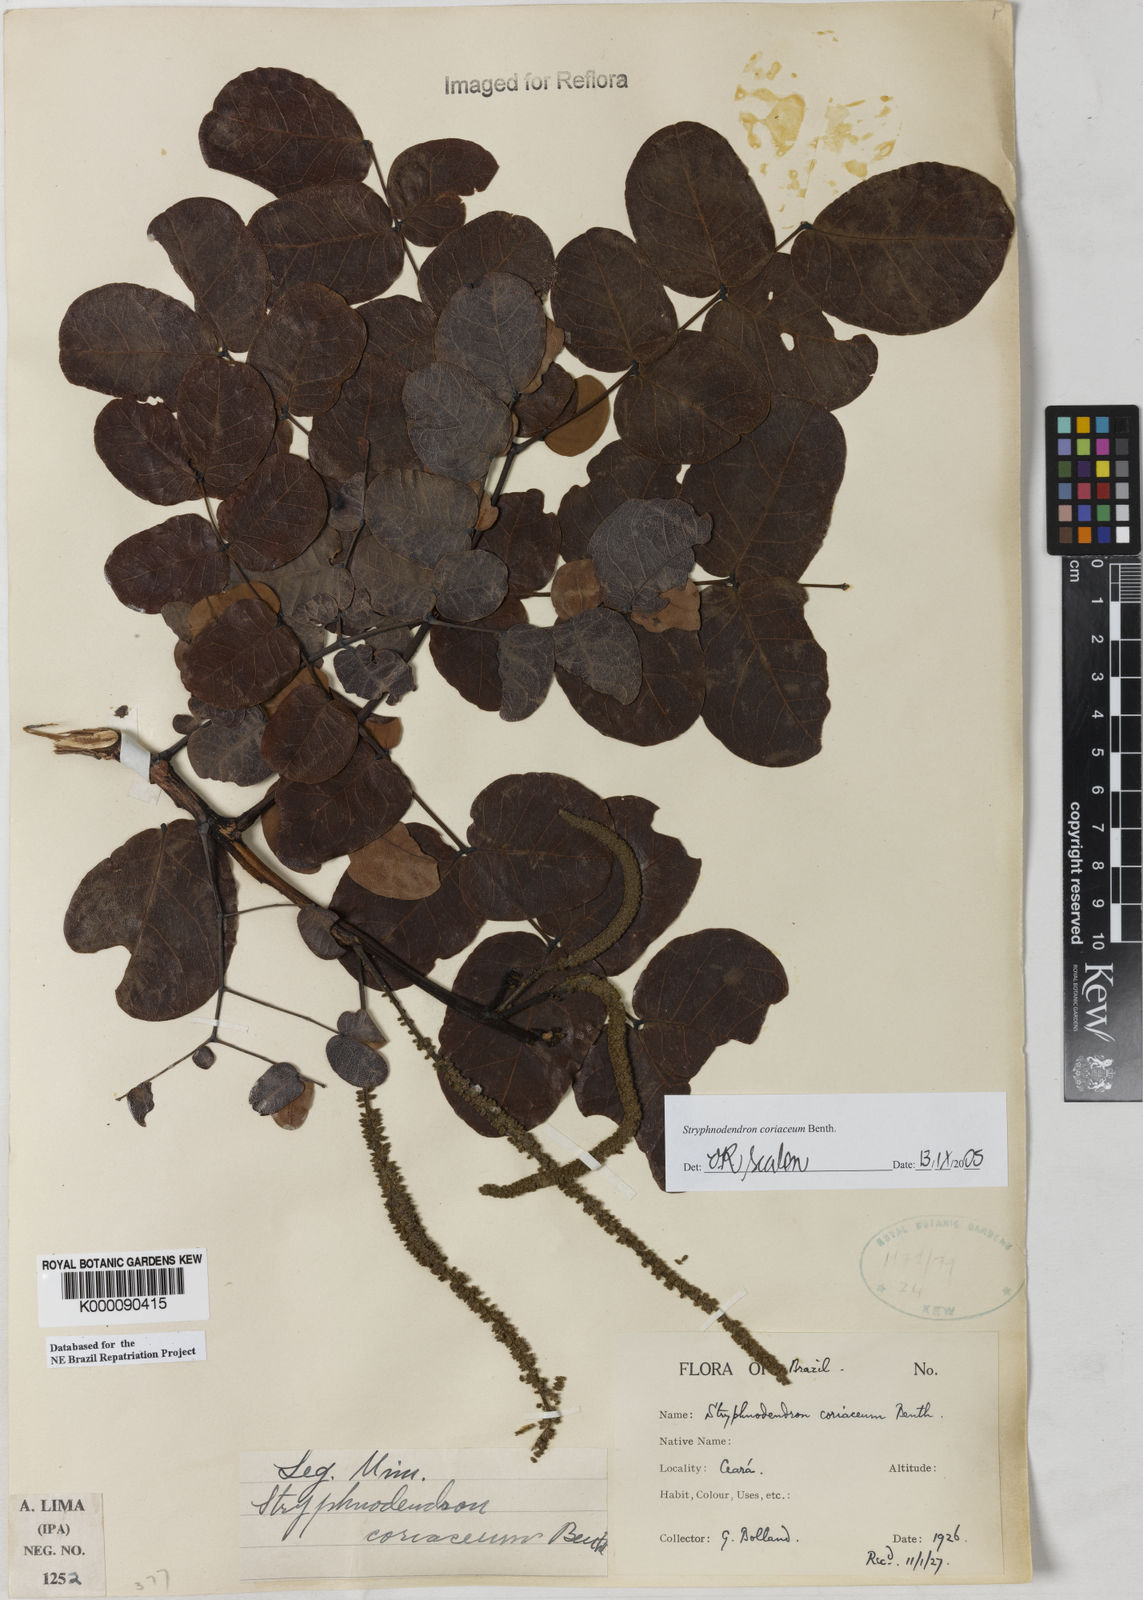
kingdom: Plantae
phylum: Tracheophyta
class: Magnoliopsida
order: Fabales
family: Fabaceae
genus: Stryphnodendron
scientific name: Stryphnodendron coriaceum
